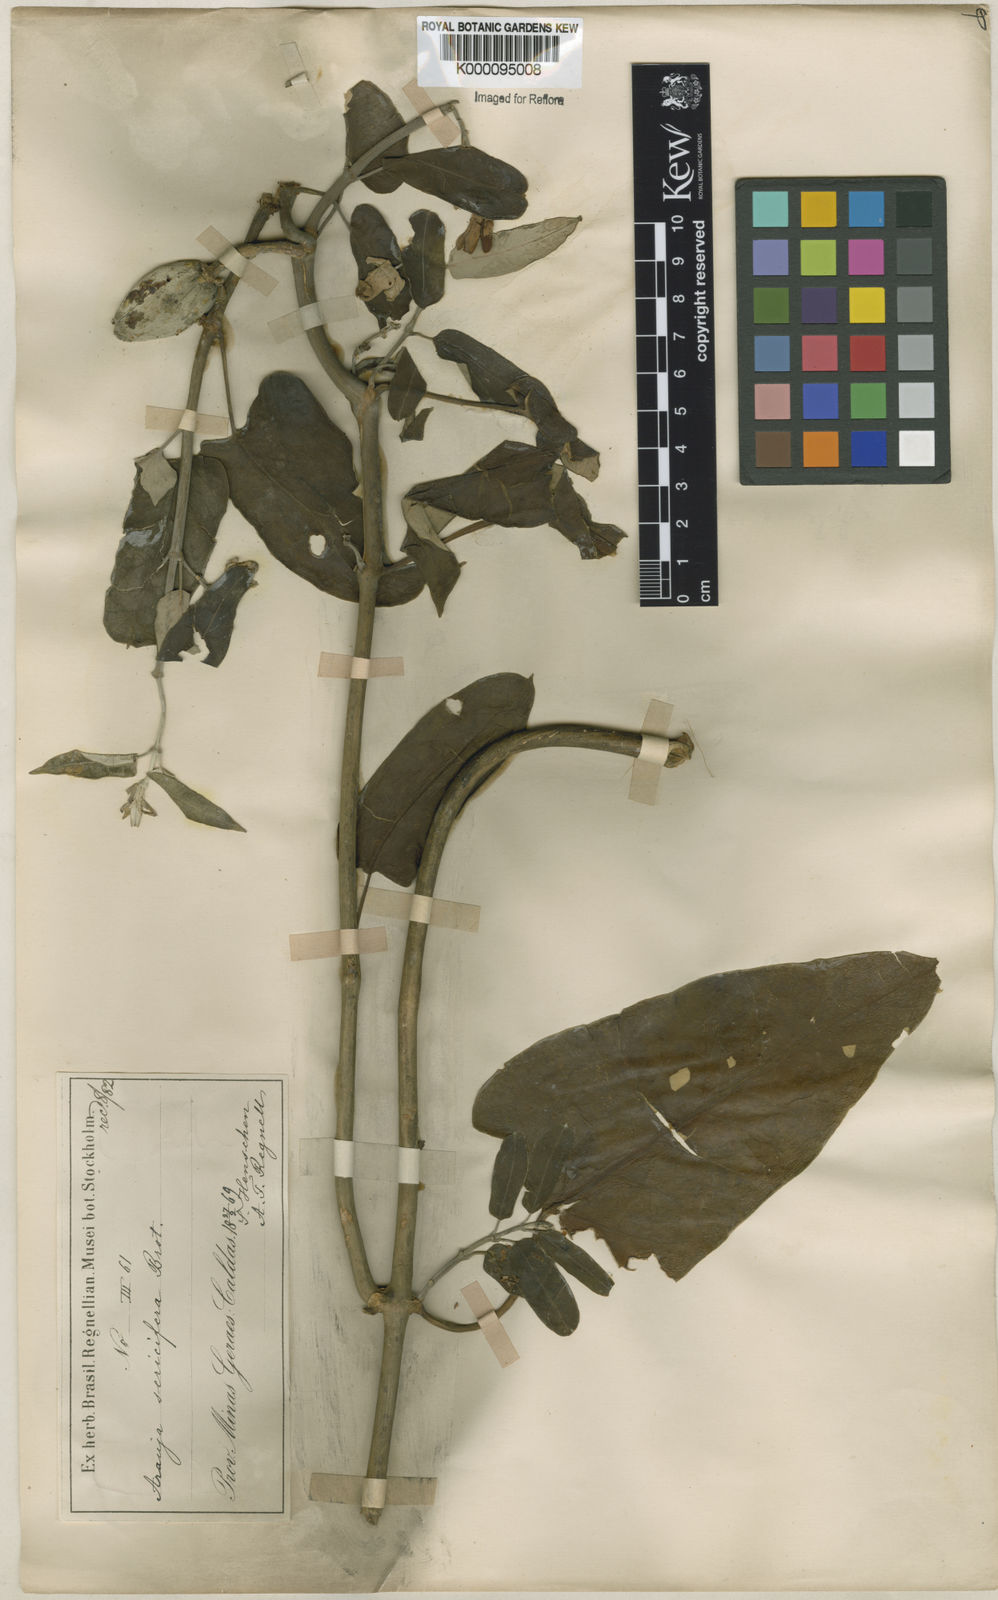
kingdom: Plantae
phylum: Tracheophyta
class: Magnoliopsida
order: Gentianales
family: Apocynaceae
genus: Araujia
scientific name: Araujia sericifera
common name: White bladderflower
